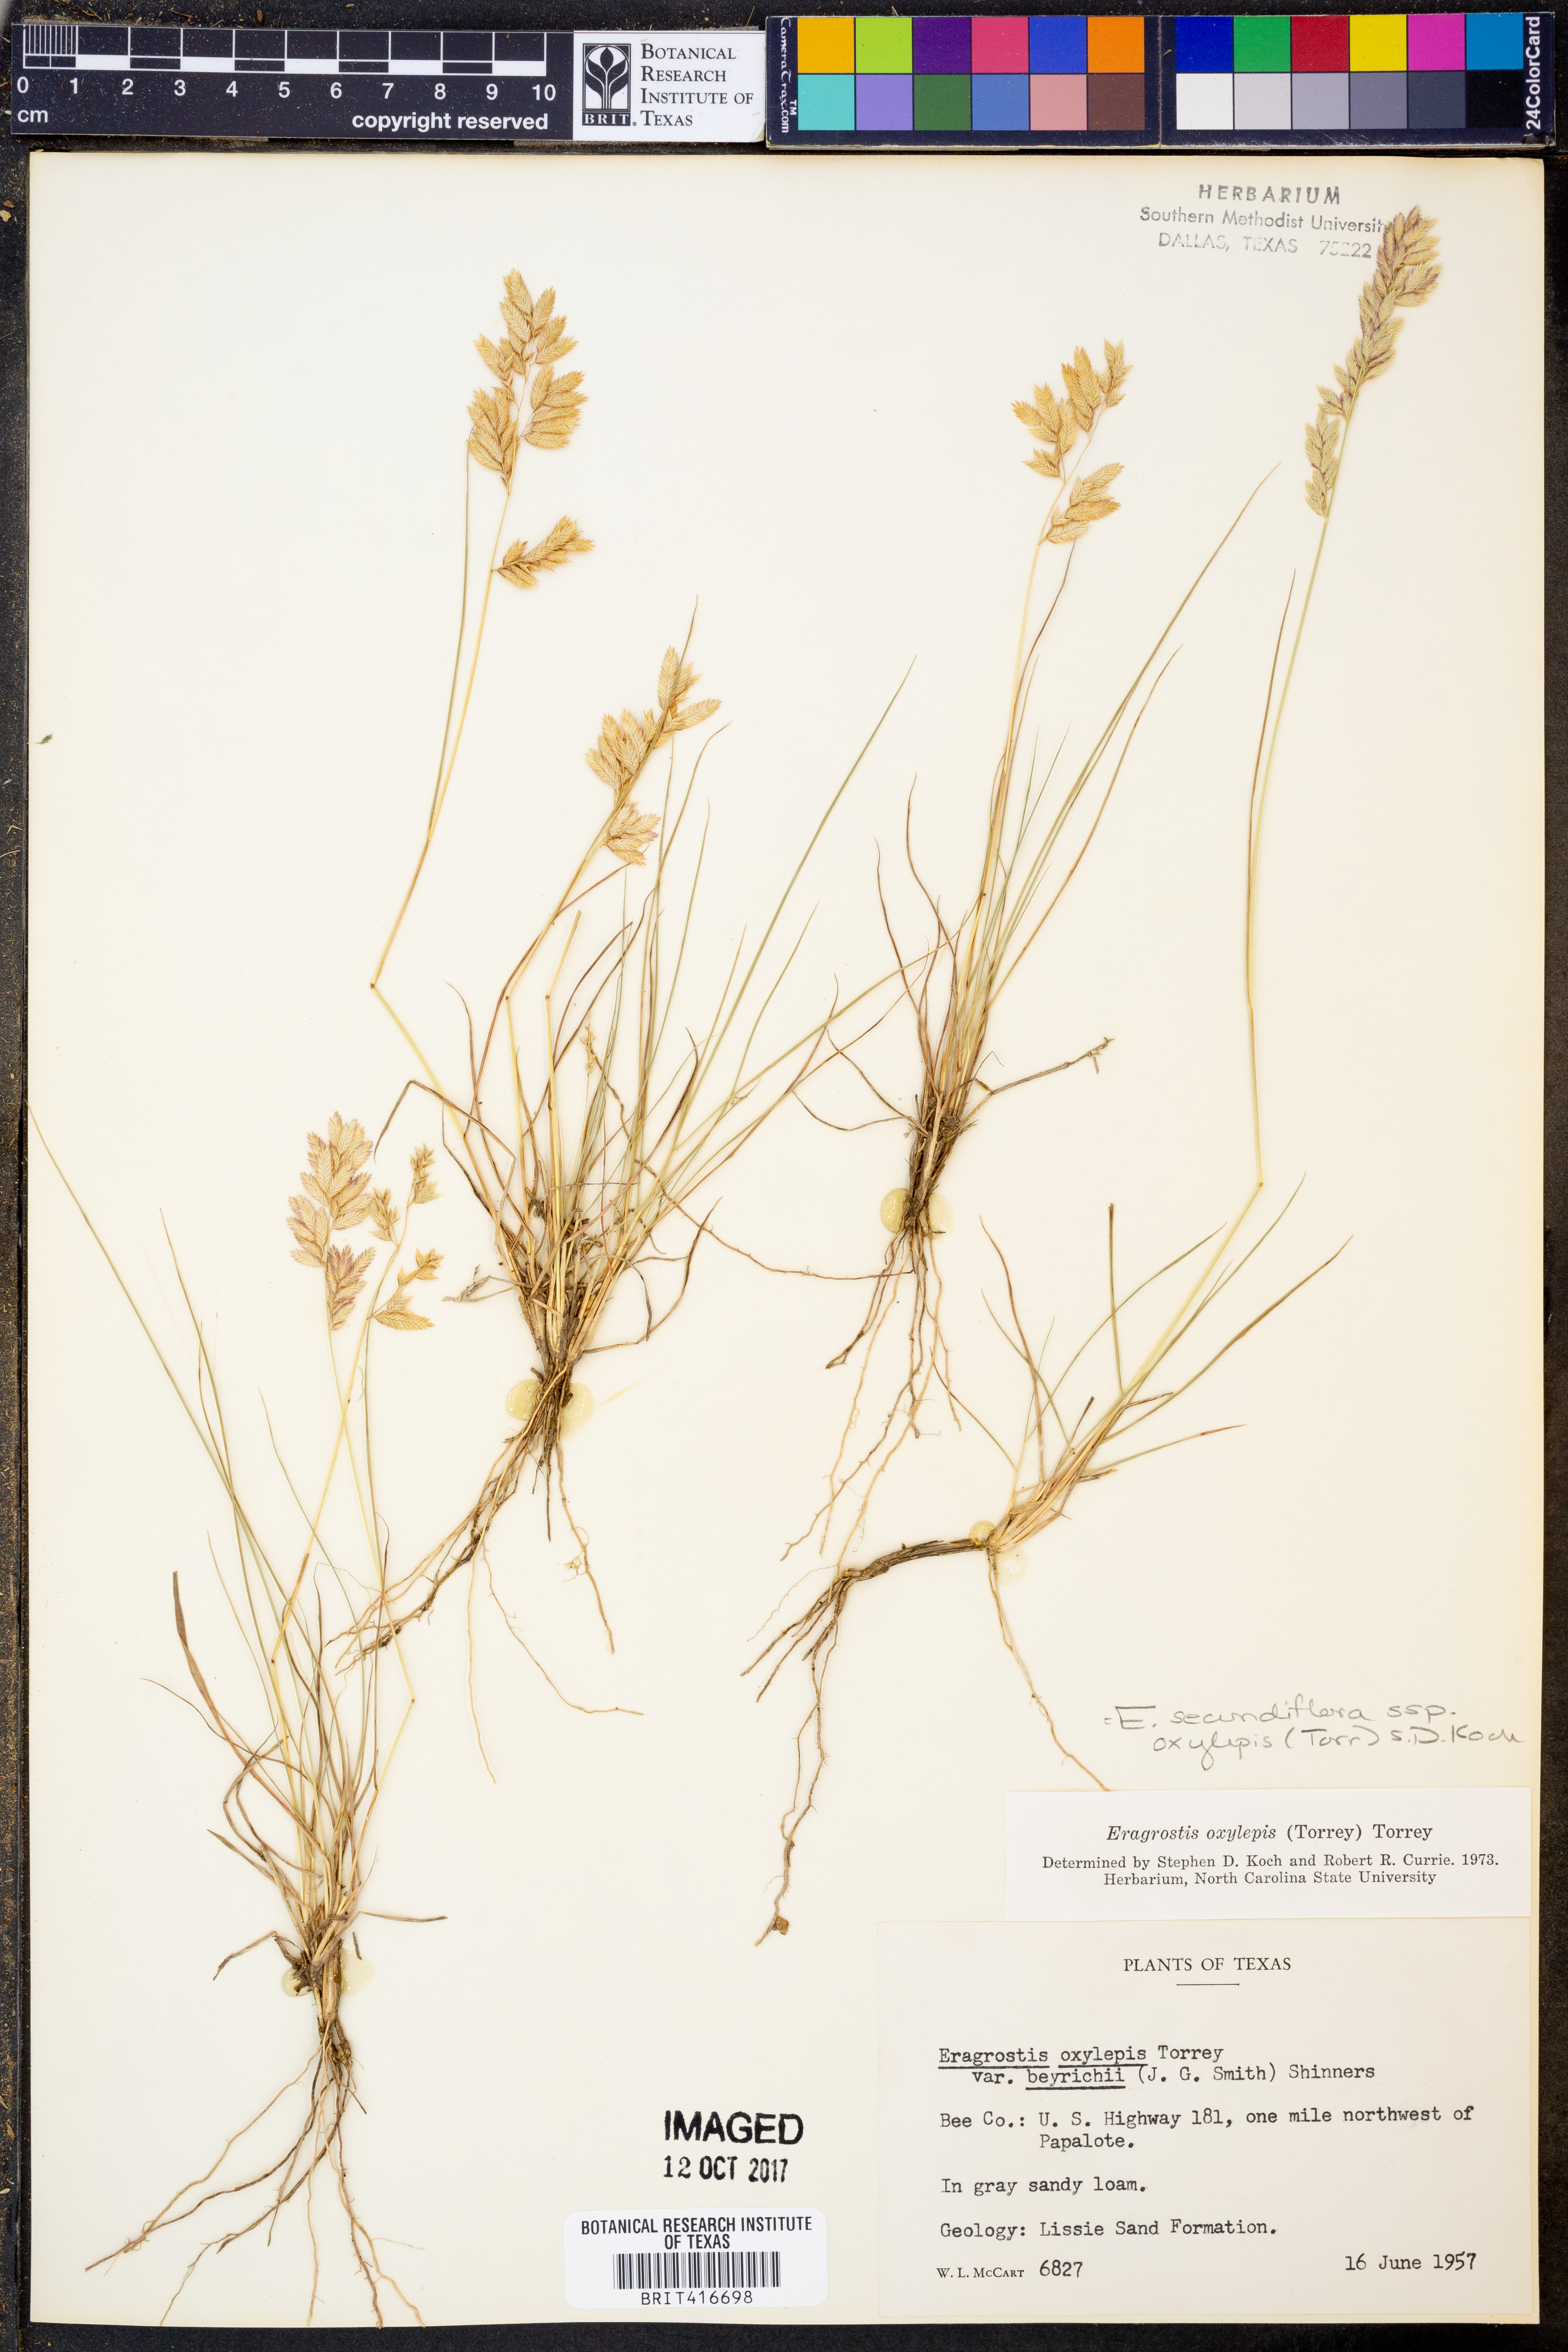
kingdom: Plantae
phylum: Tracheophyta
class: Liliopsida
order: Poales
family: Poaceae
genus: Eragrostis
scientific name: Eragrostis secundiflora
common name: Red love grass
